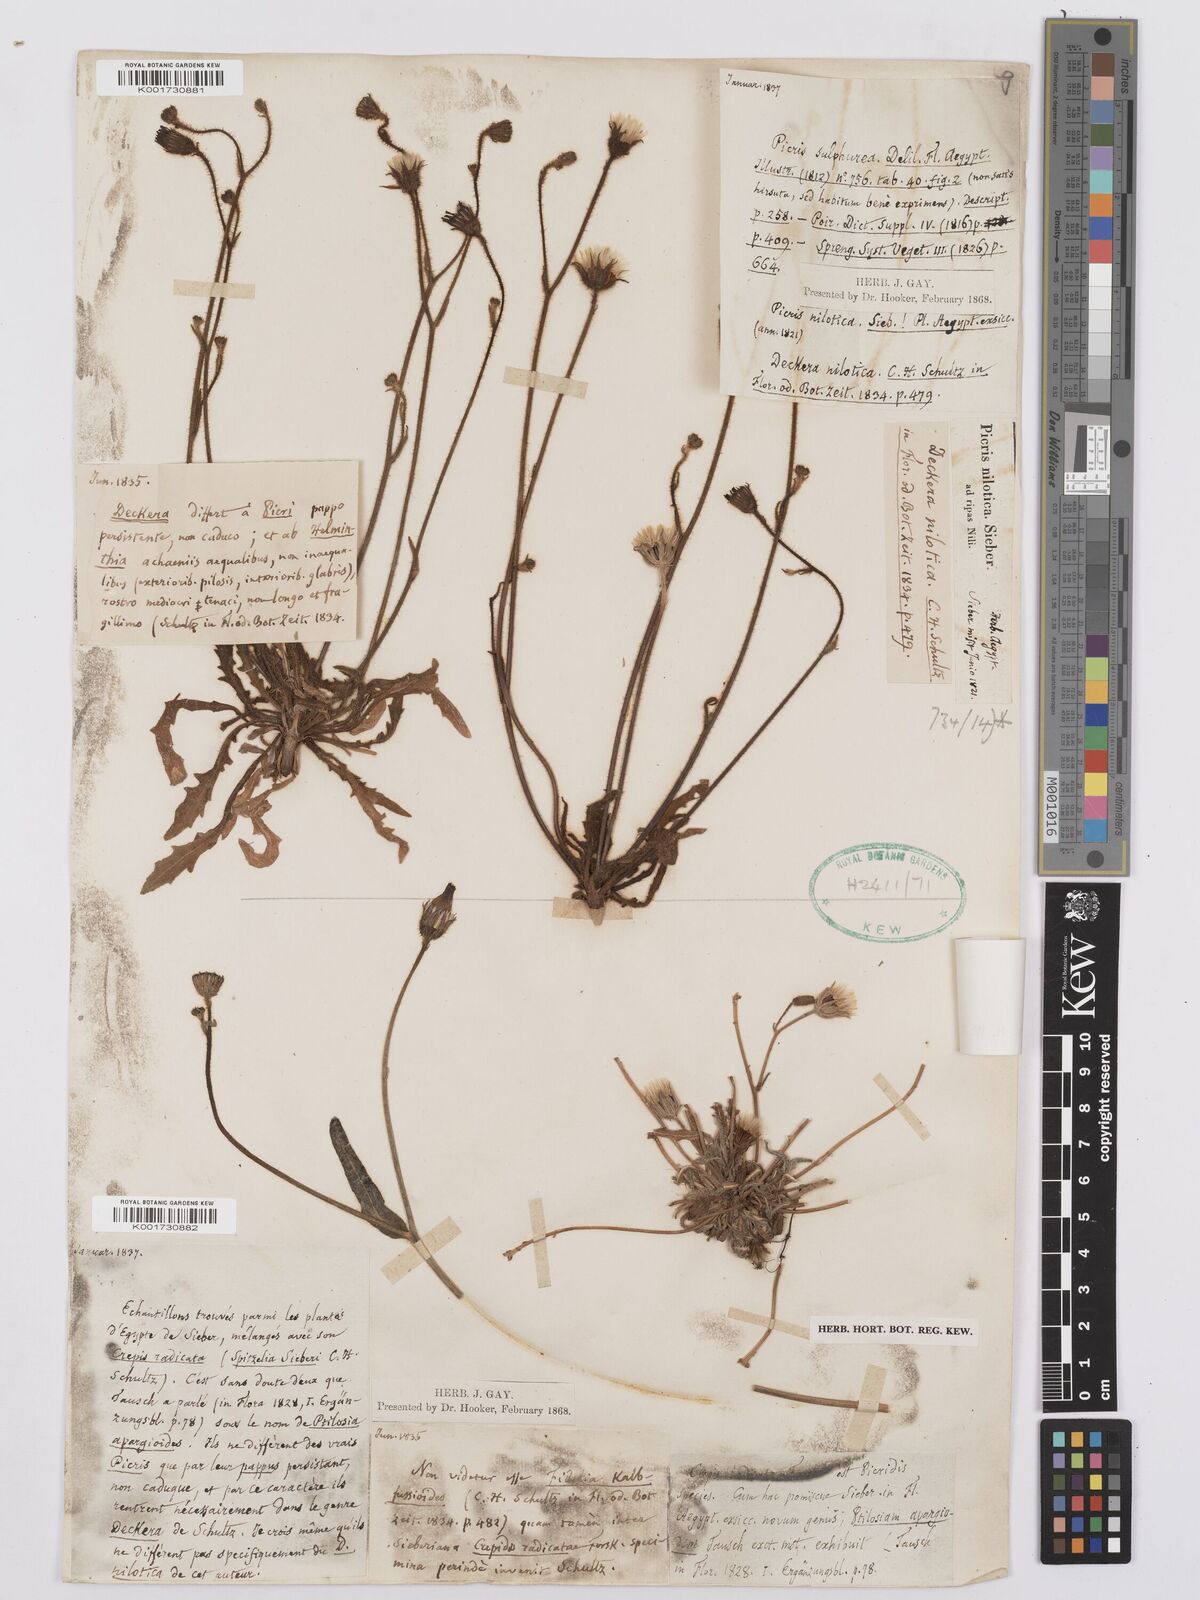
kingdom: Plantae
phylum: Tracheophyta
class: Magnoliopsida
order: Asterales
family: Asteraceae
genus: Picris
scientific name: Picris sulphurea
